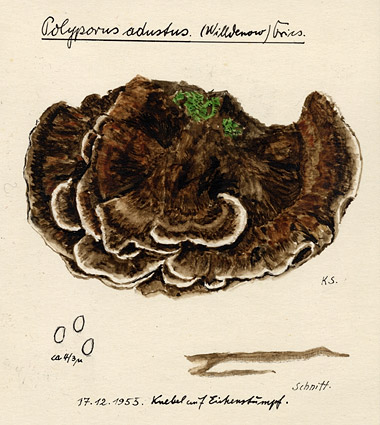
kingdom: Plantae
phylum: Tracheophyta
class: Magnoliopsida
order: Fagales
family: Fagaceae
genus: Quercus
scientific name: Quercus
